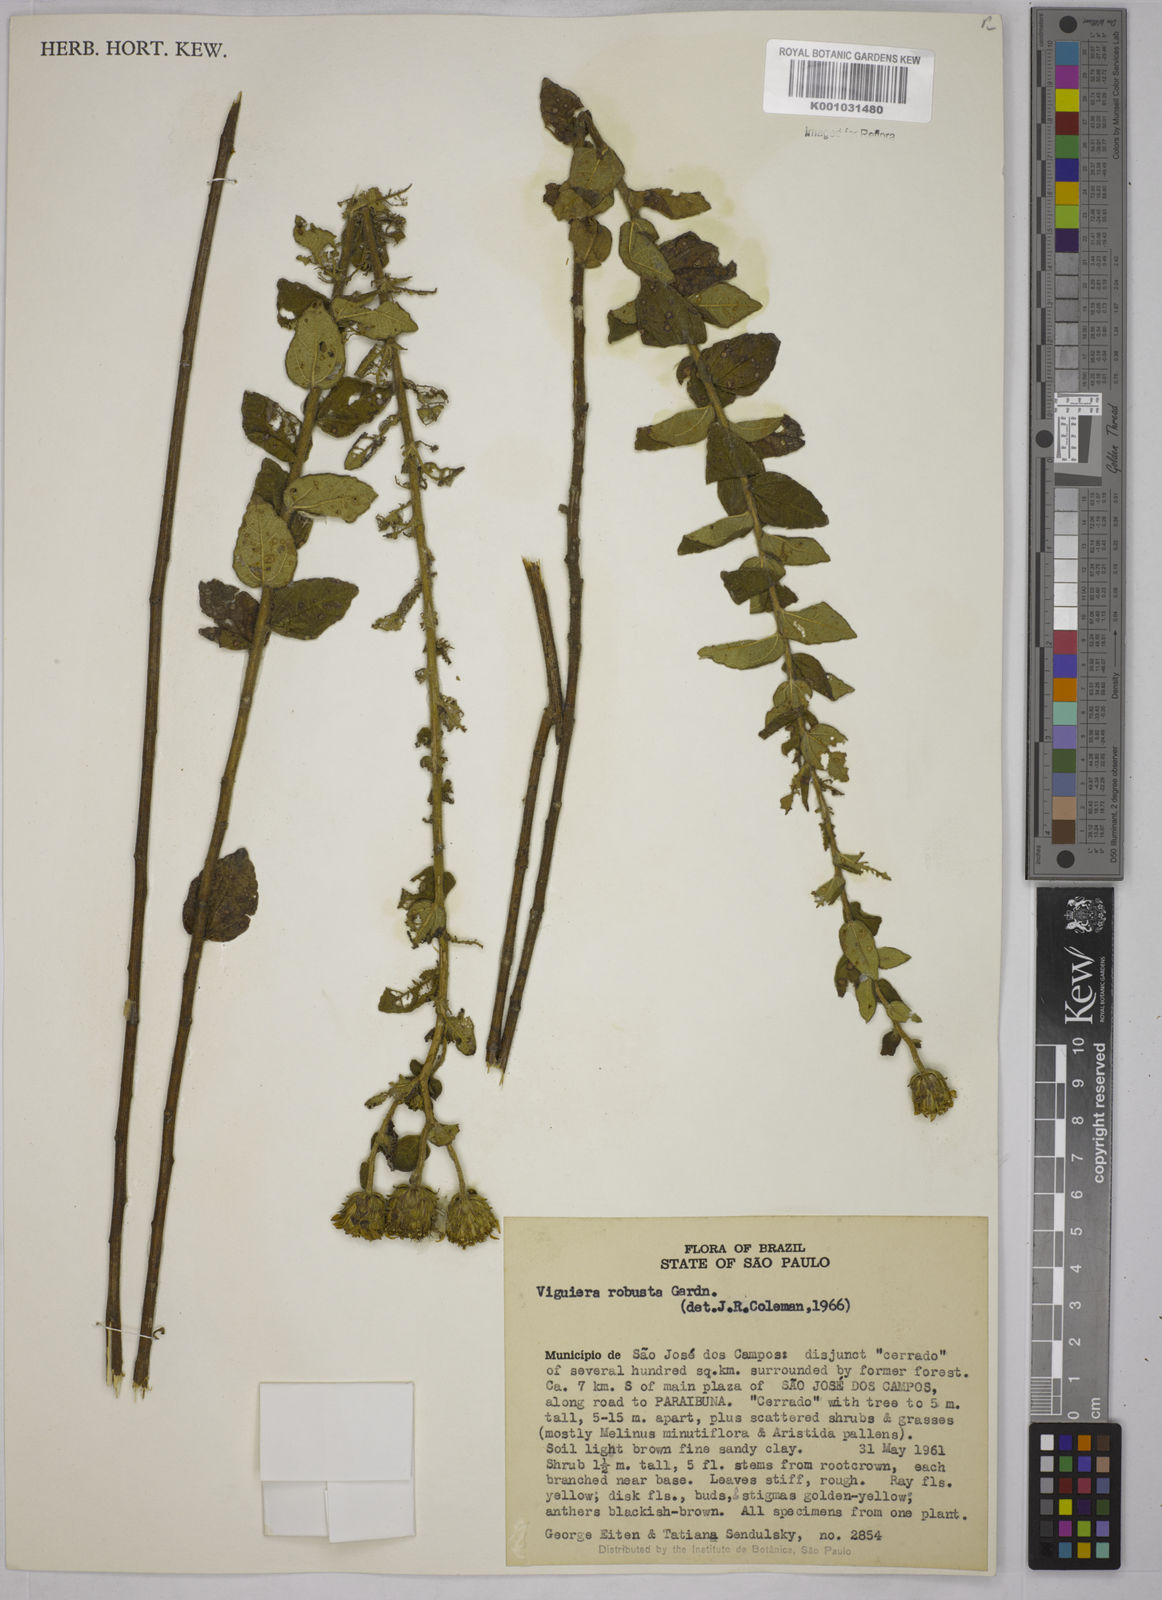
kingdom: Plantae
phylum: Tracheophyta
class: Magnoliopsida
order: Asterales
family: Asteraceae
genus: Aldama
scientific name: Aldama robusta
